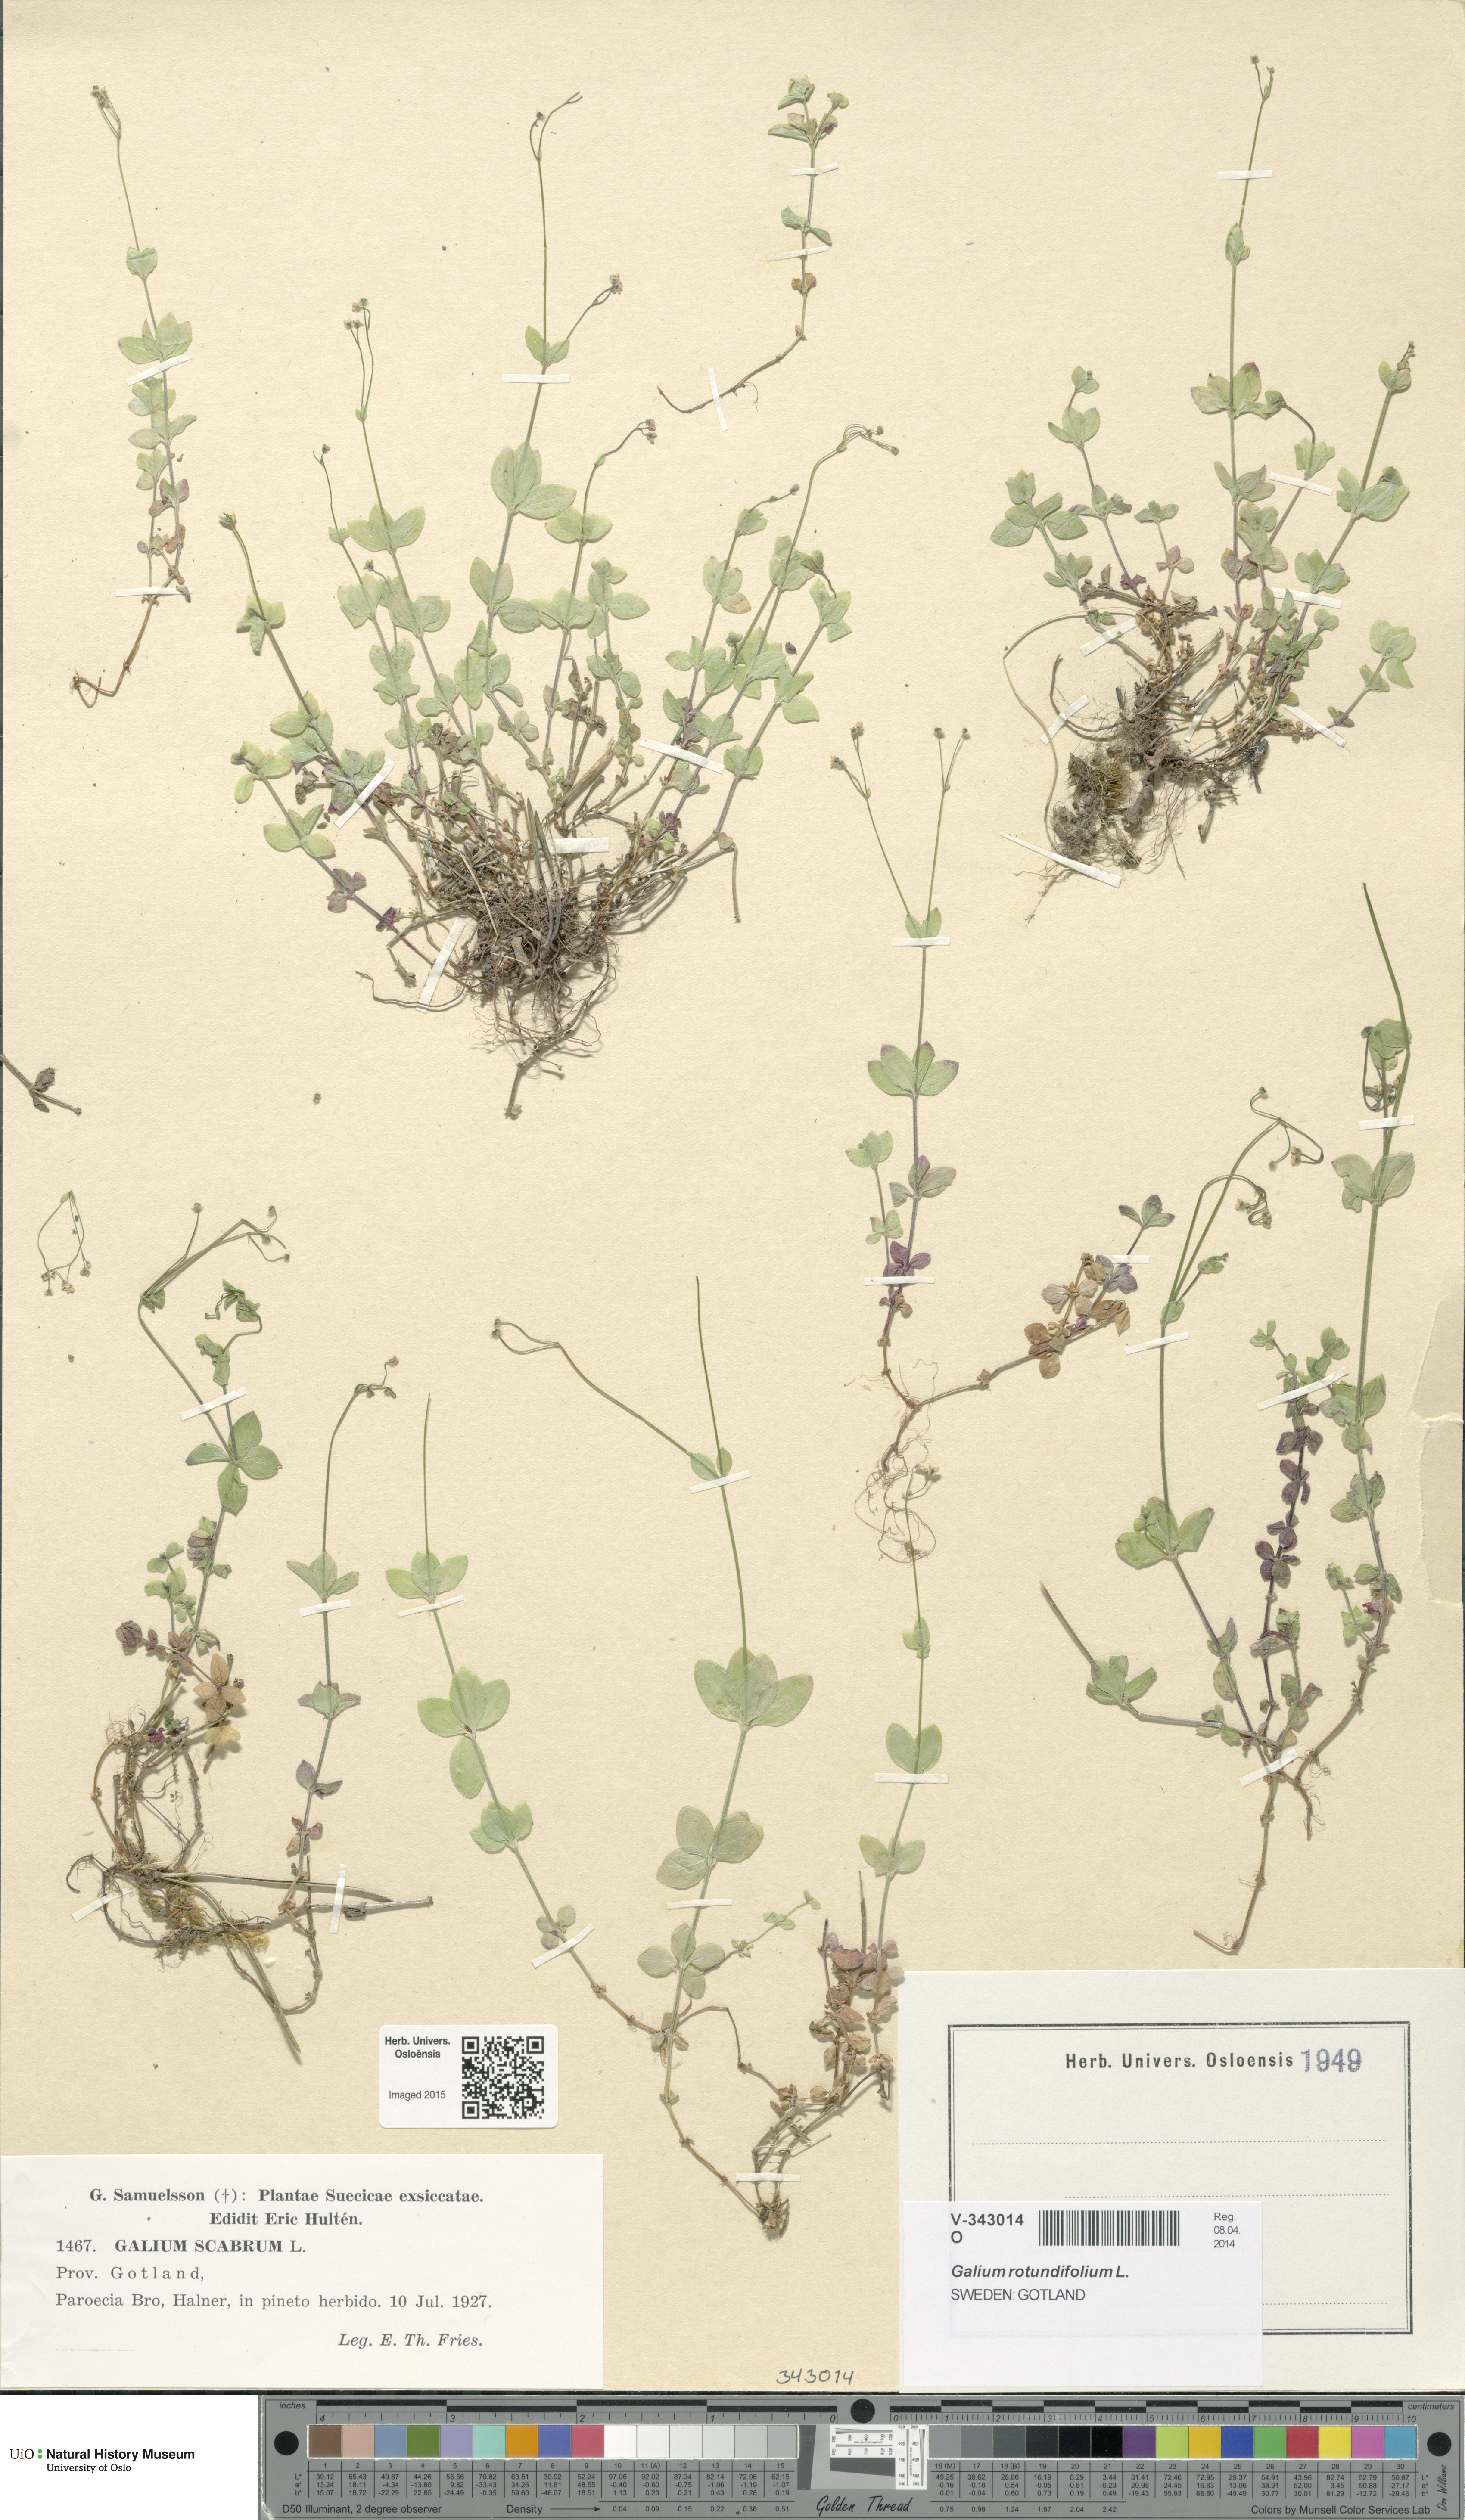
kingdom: Plantae
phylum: Tracheophyta
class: Magnoliopsida
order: Gentianales
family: Rubiaceae
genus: Galium
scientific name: Galium rotundifolium
